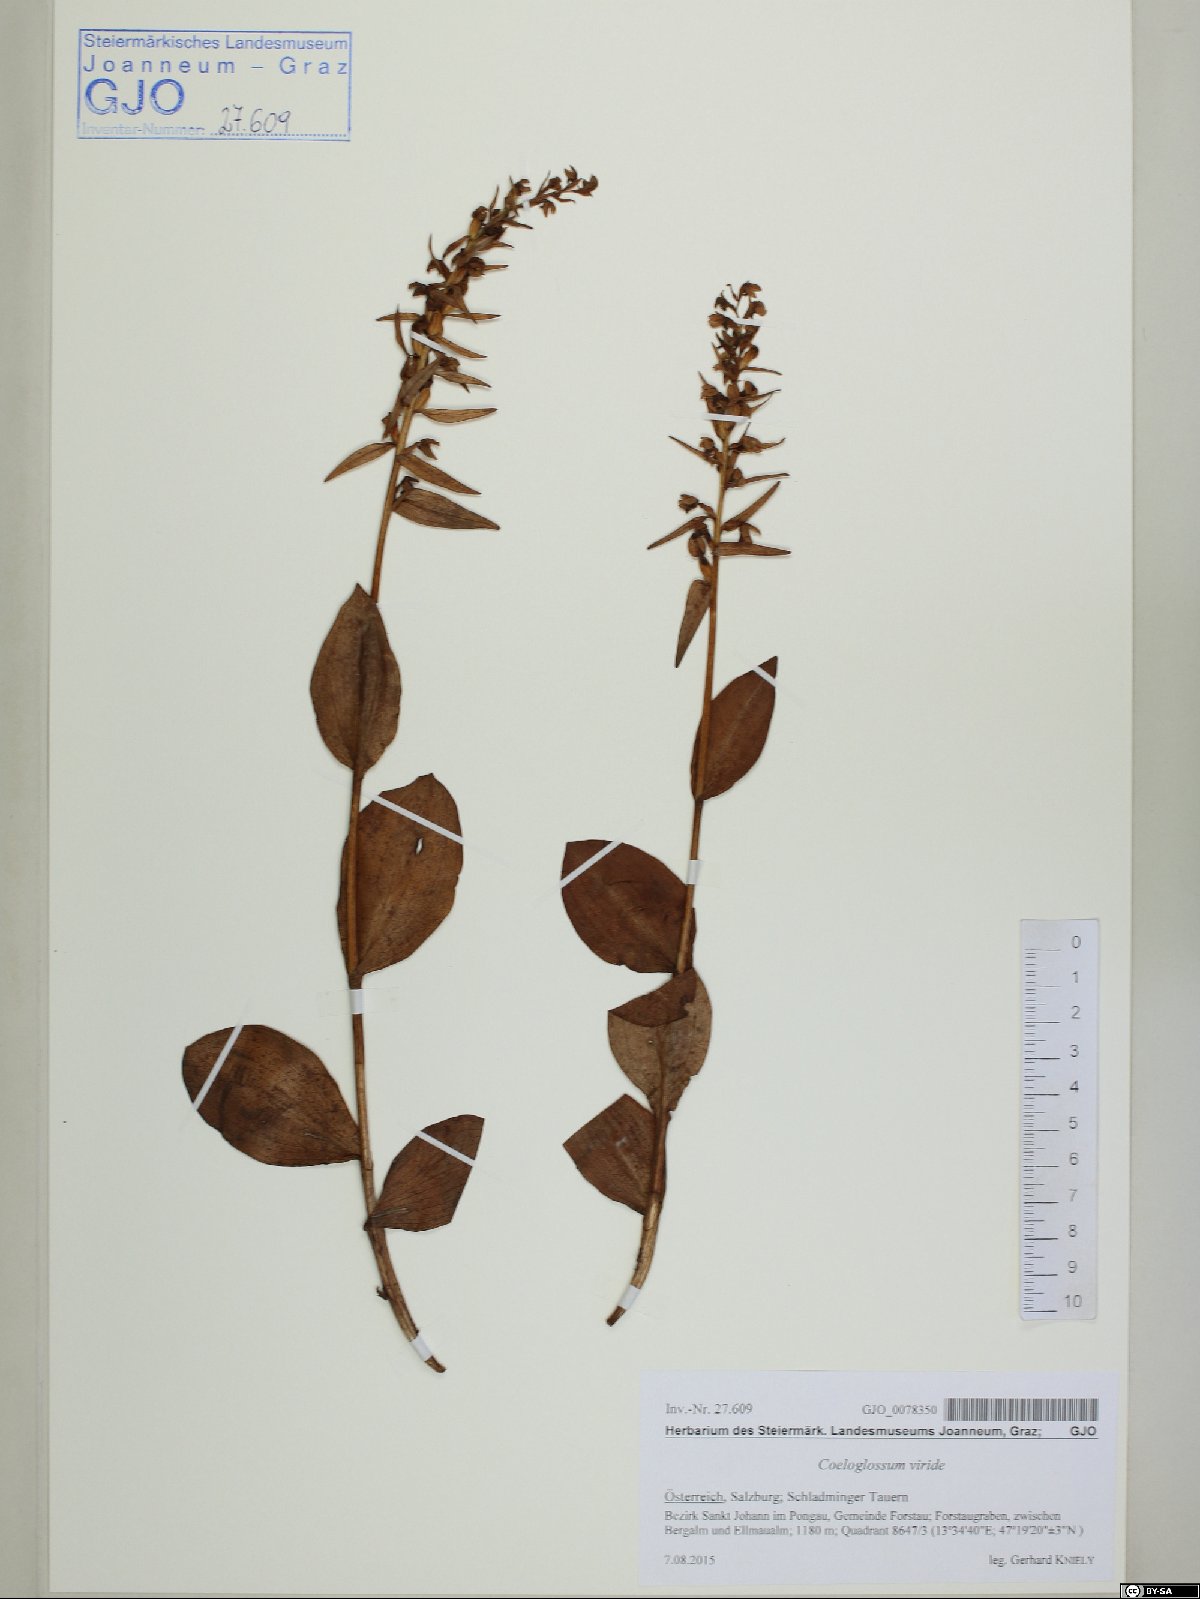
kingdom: Plantae
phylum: Tracheophyta
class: Liliopsida
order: Asparagales
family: Orchidaceae
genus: Dactylorhiza
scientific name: Dactylorhiza viridis
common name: Longbract frog orchid
